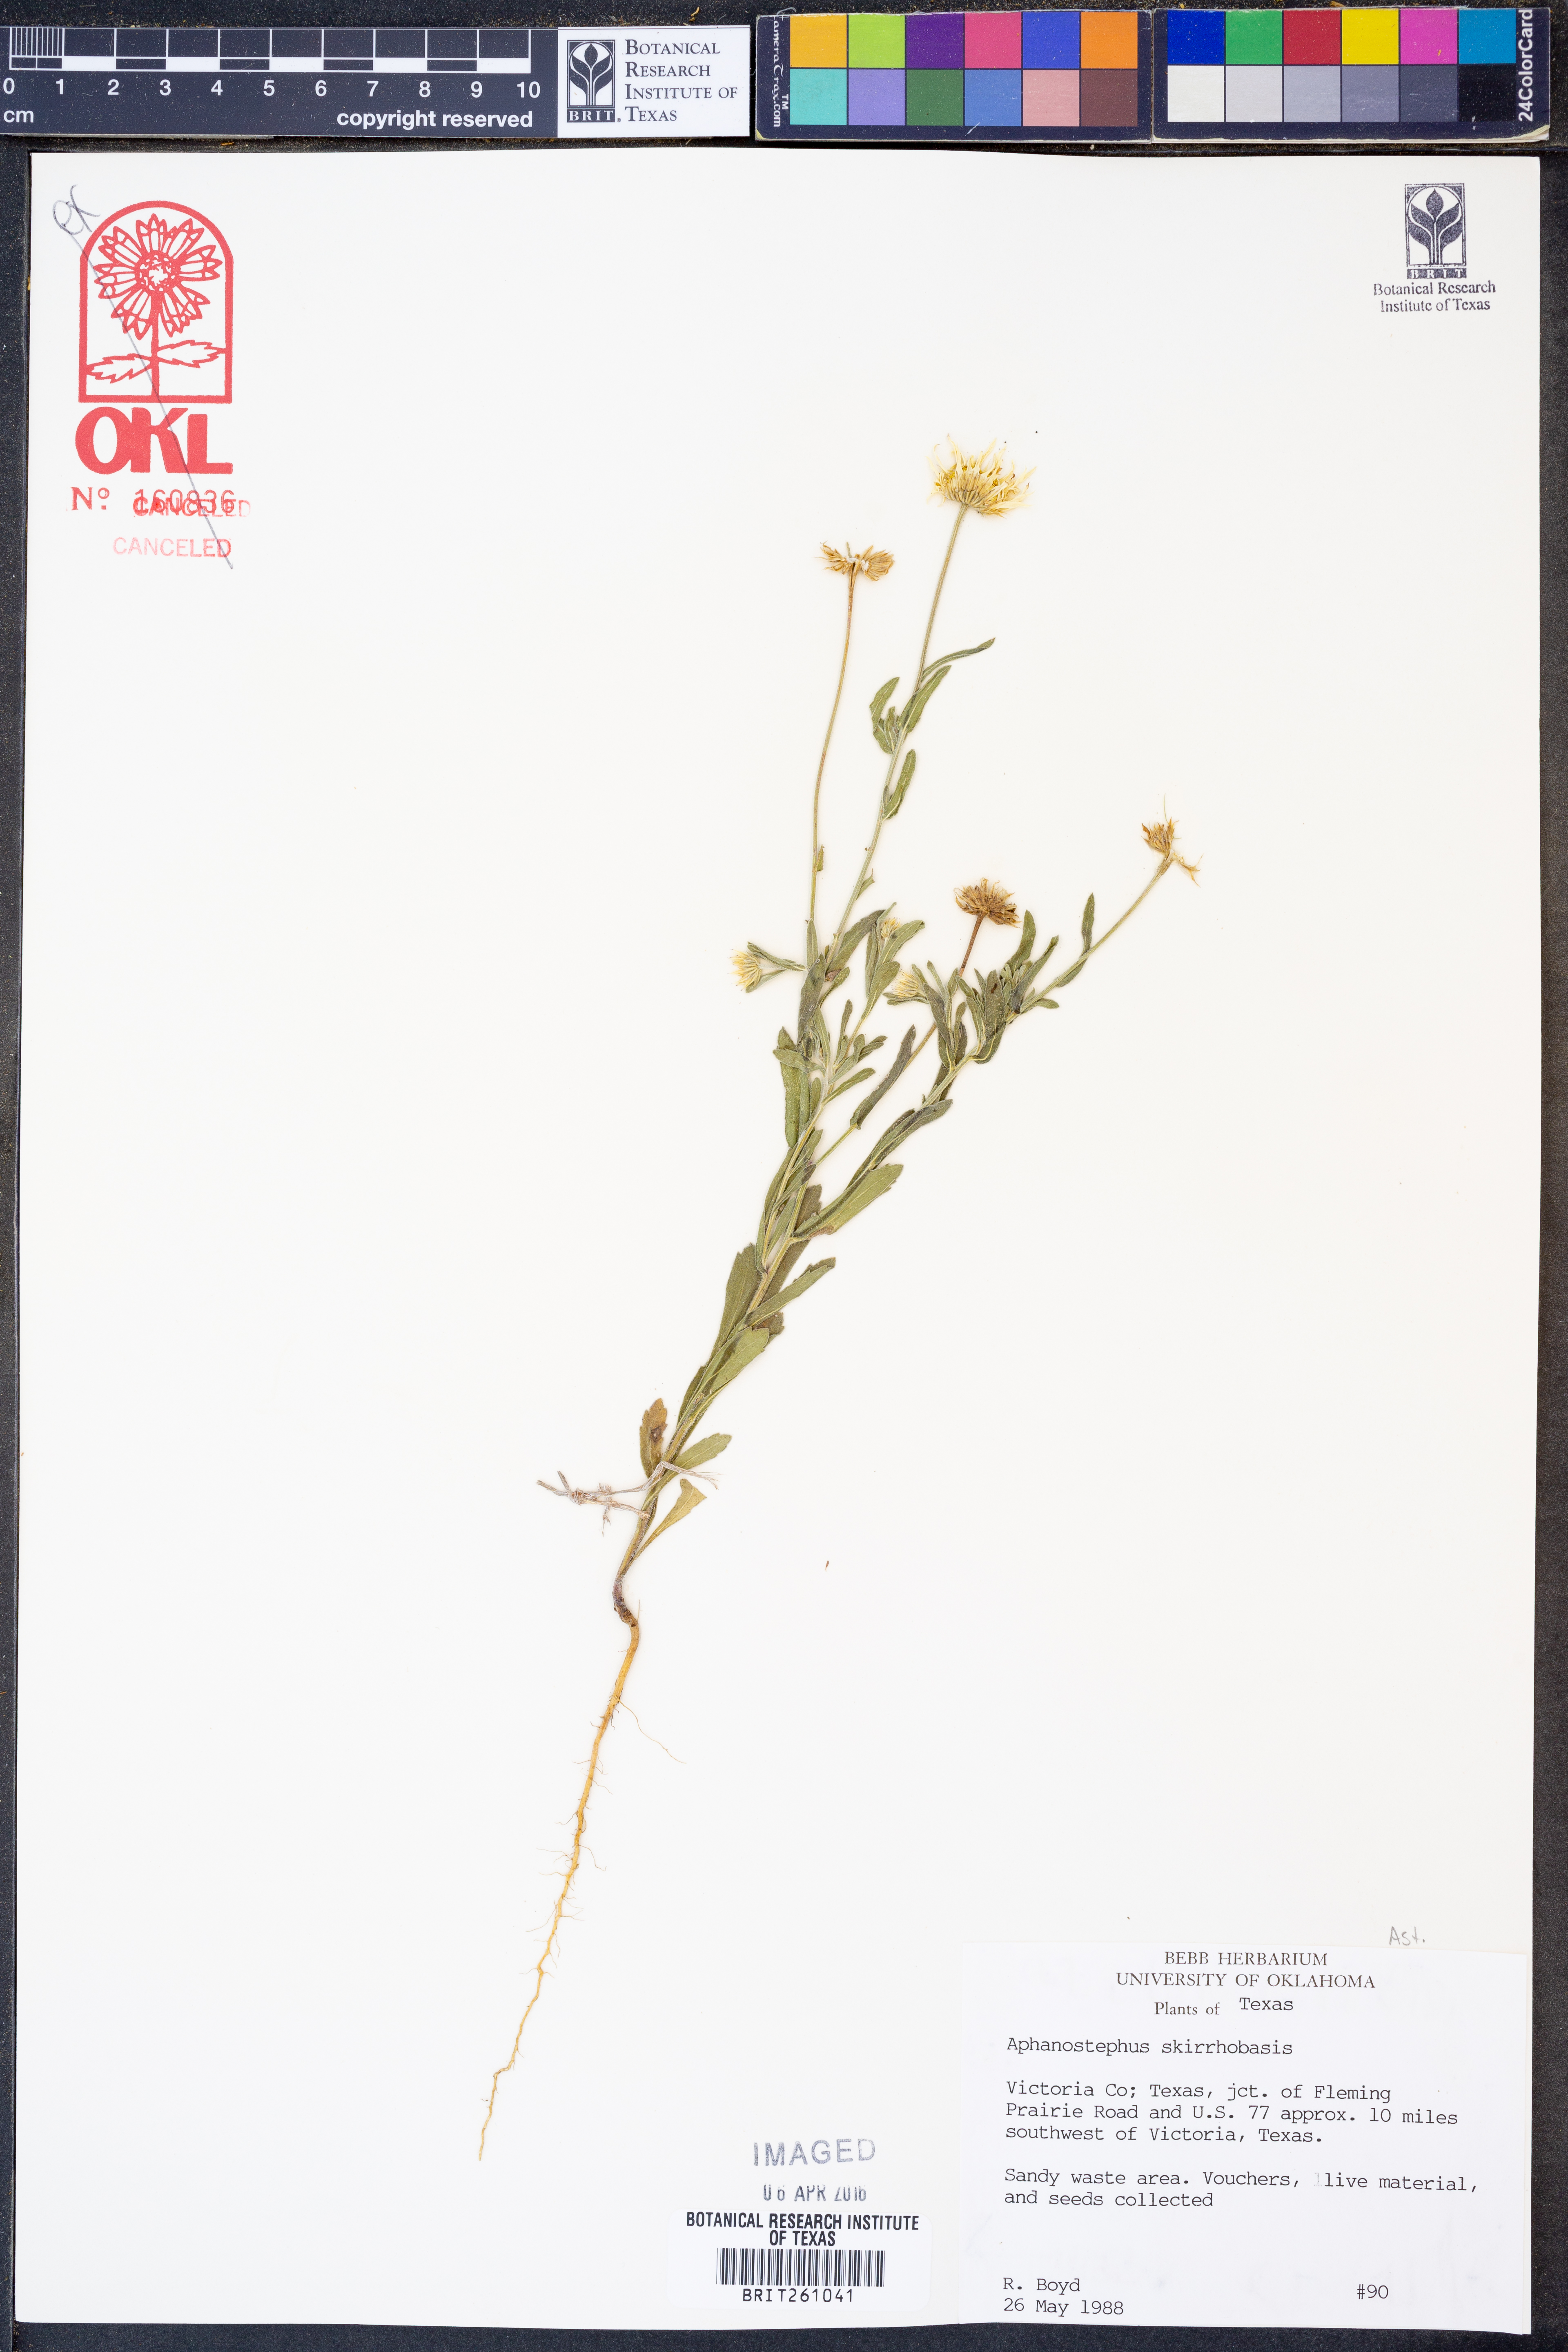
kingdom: Plantae
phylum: Tracheophyta
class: Magnoliopsida
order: Asterales
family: Asteraceae
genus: Aphanostephus
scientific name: Aphanostephus skirrhobasis
